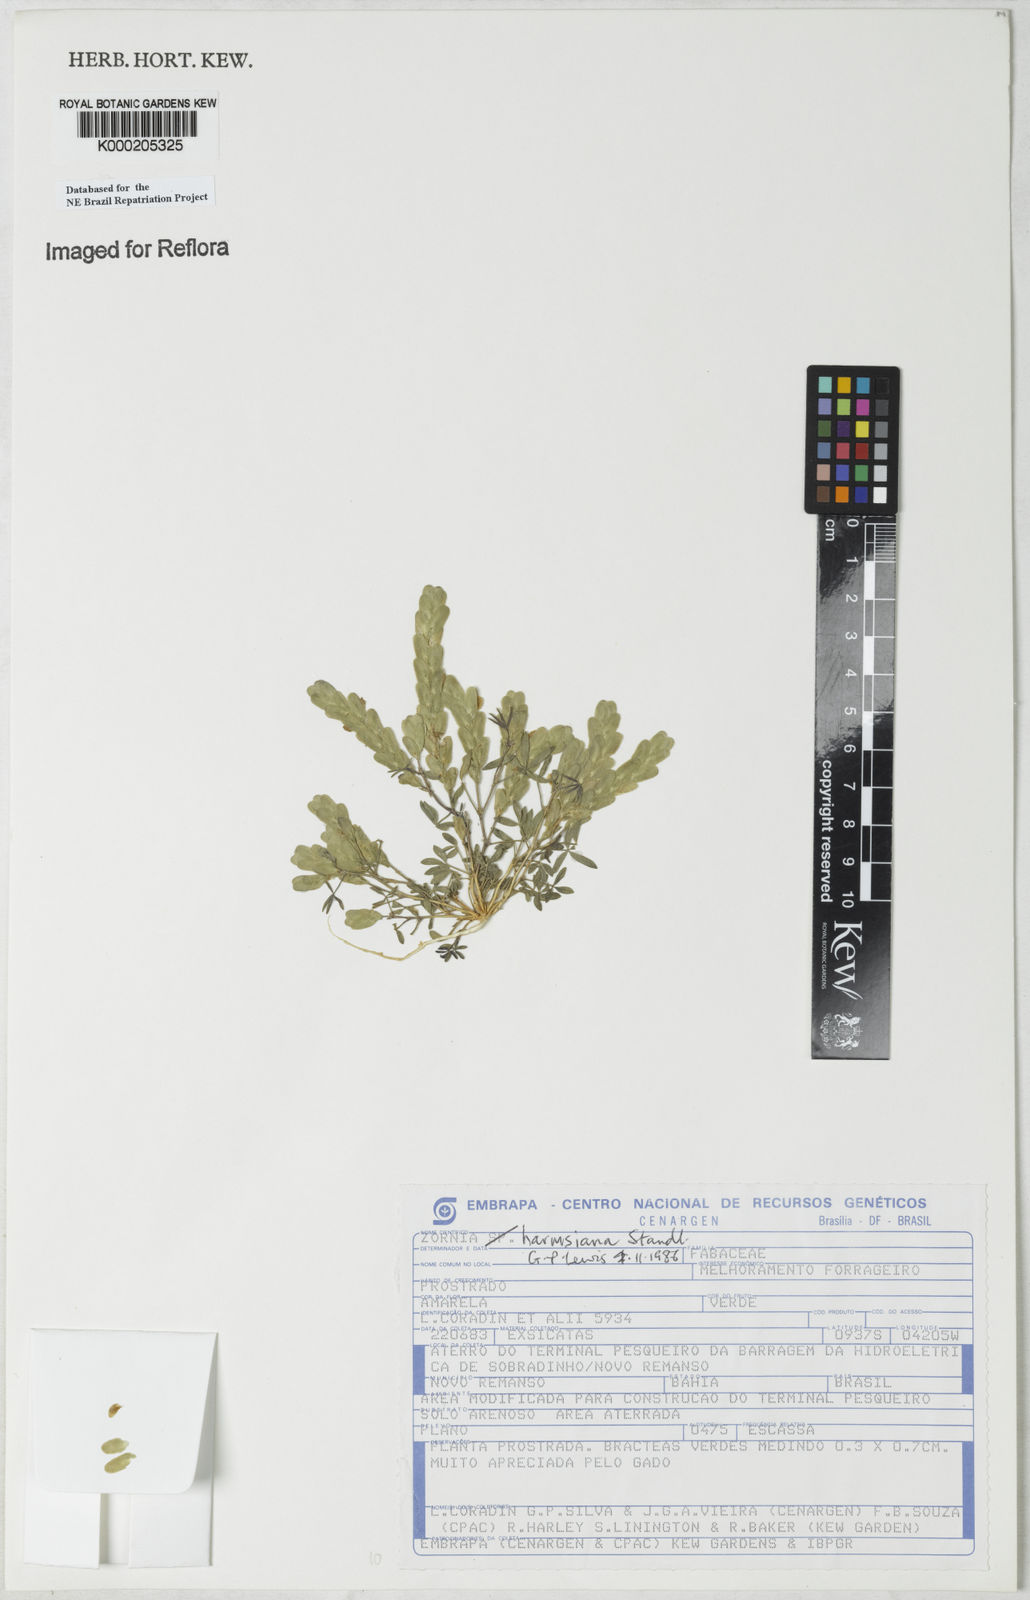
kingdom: Plantae
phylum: Tracheophyta
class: Magnoliopsida
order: Fabales
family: Fabaceae
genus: Zornia
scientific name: Zornia harmsiana
